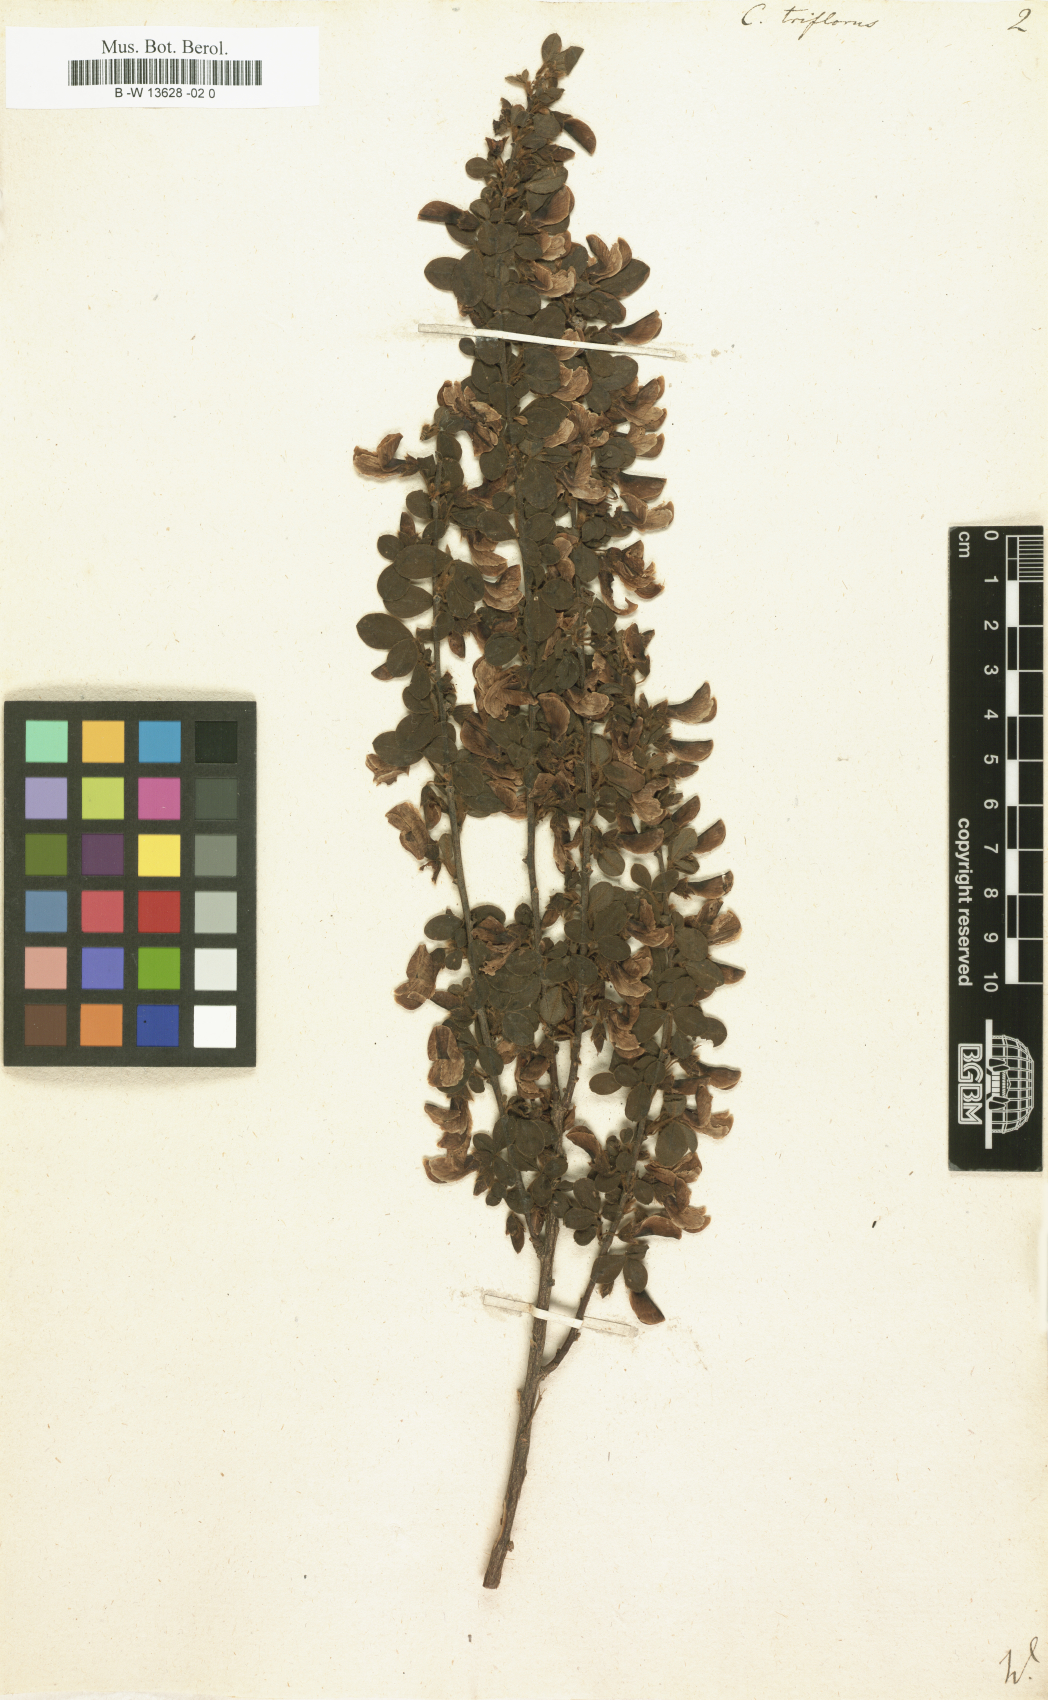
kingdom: Plantae
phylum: Tracheophyta
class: Magnoliopsida
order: Fabales
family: Fabaceae
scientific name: Fabaceae
